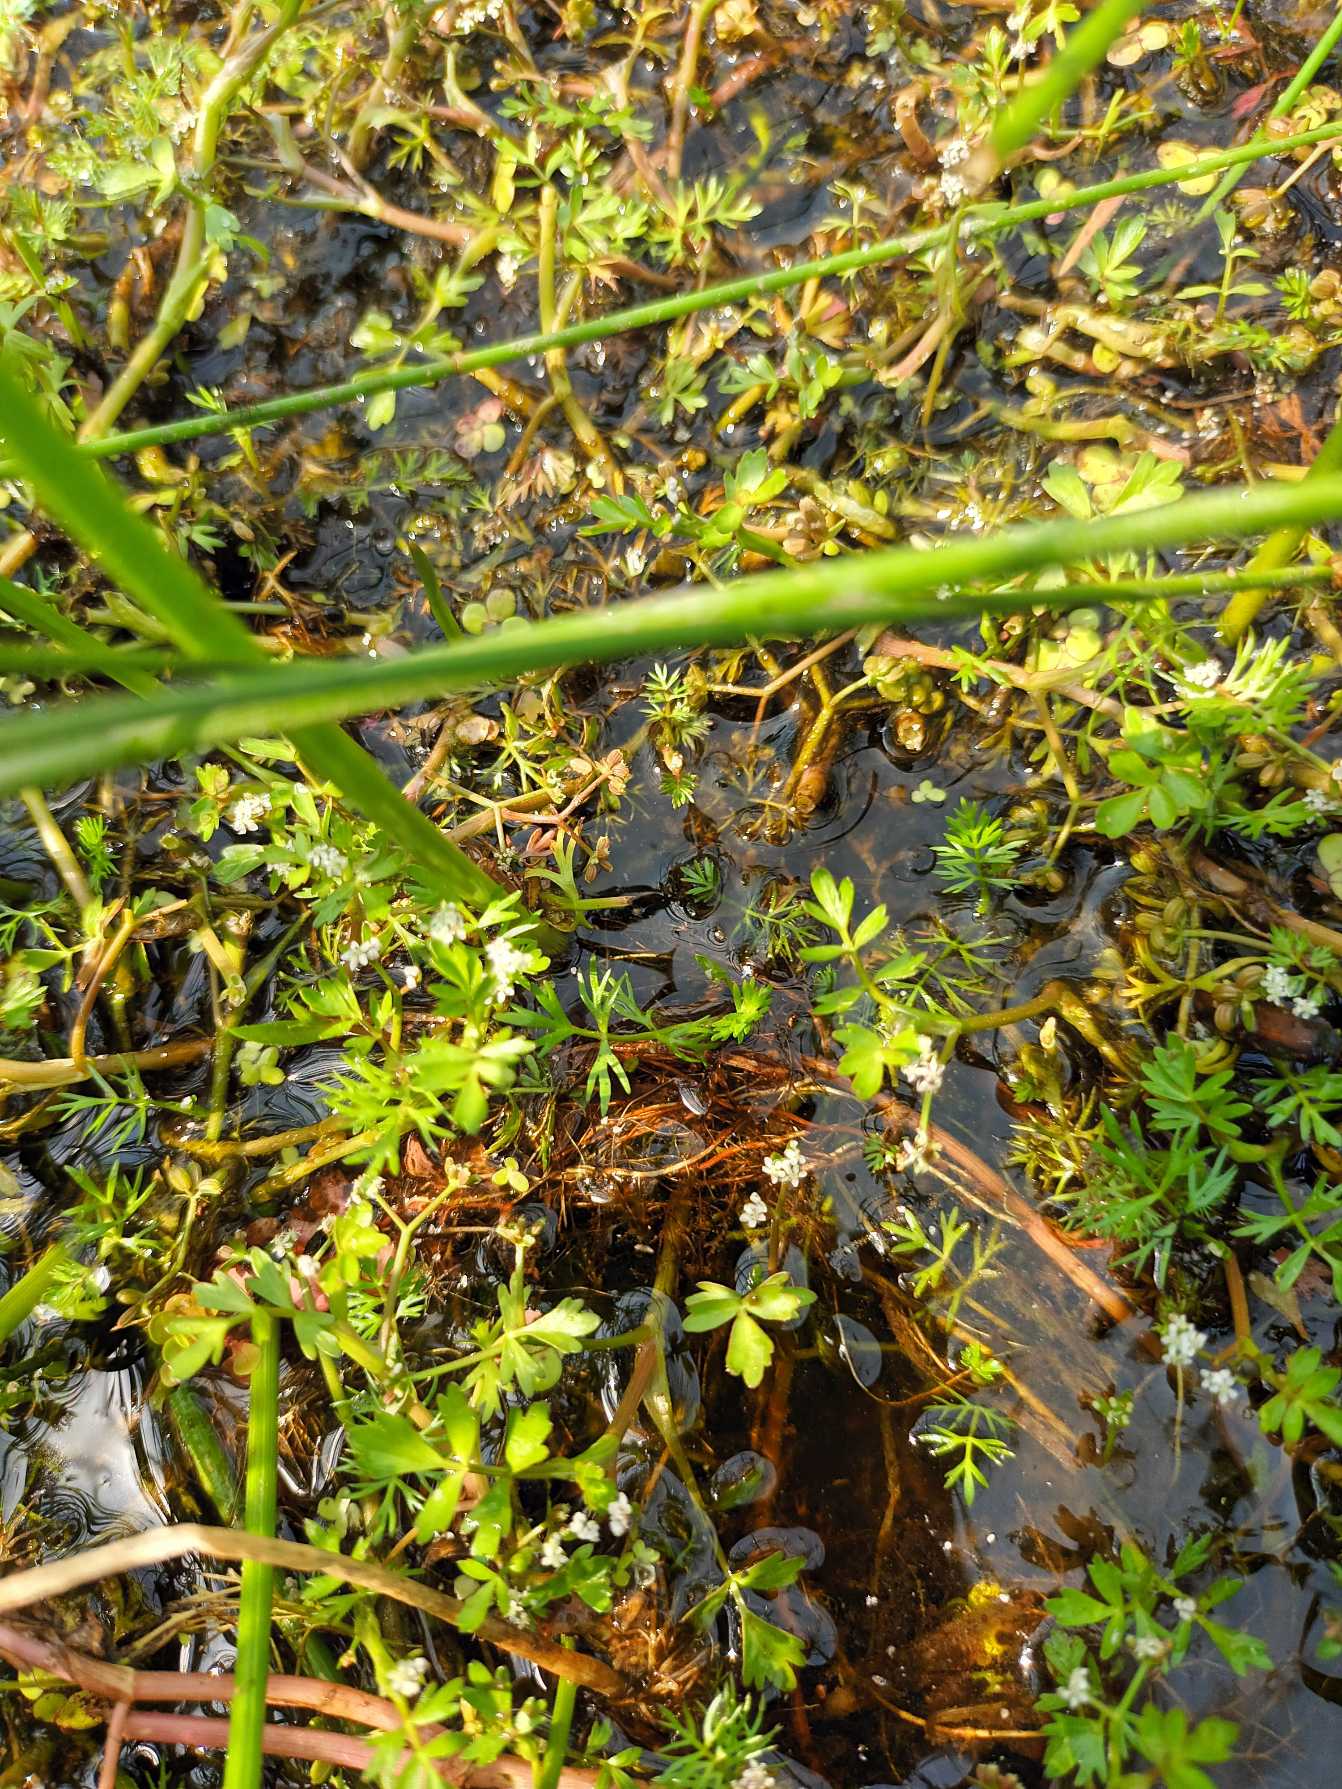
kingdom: Plantae
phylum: Tracheophyta
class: Magnoliopsida
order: Apiales
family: Apiaceae
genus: Helosciadium
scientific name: Helosciadium inundatum
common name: Svømmende sumpskærm
